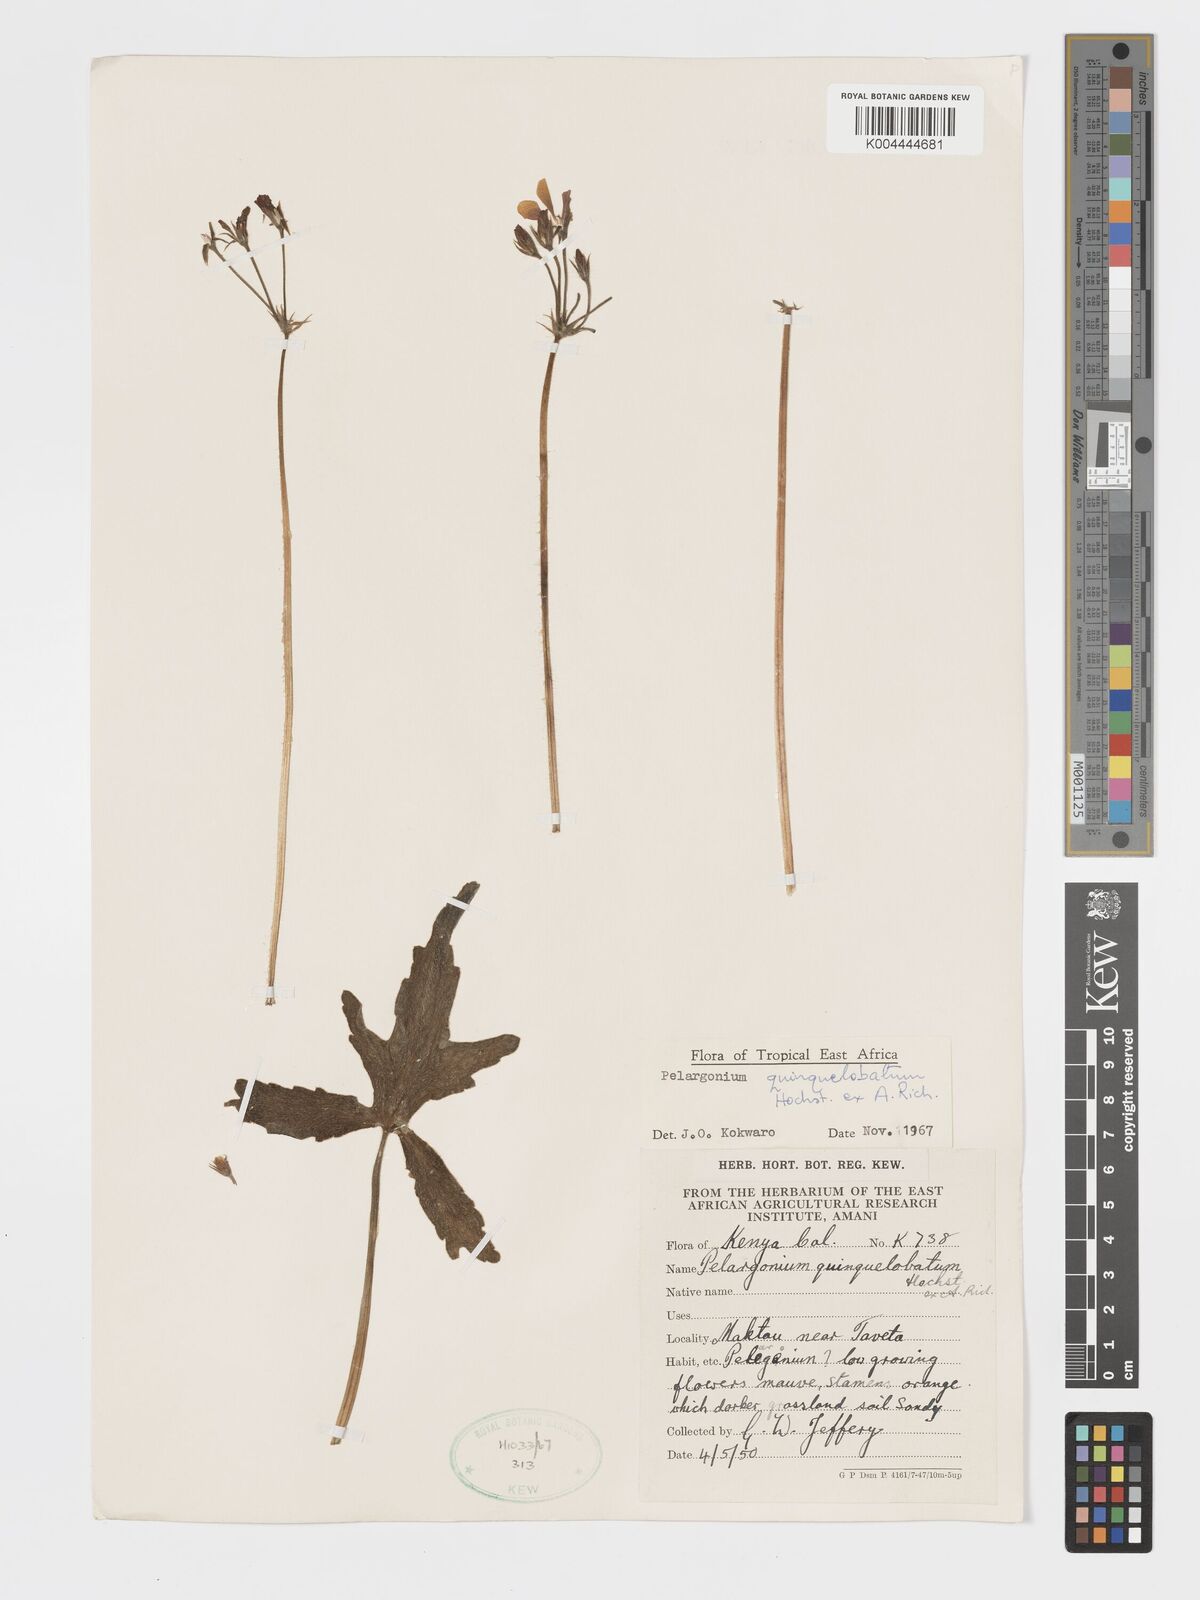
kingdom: Plantae
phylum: Tracheophyta
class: Magnoliopsida
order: Geraniales
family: Geraniaceae
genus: Pelargonium
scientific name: Pelargonium quinquelobatum
